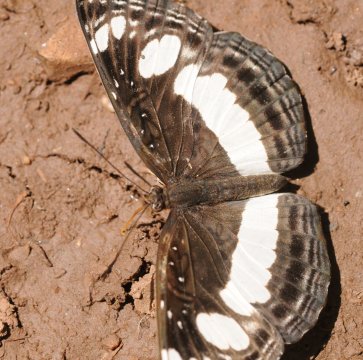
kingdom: Animalia
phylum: Arthropoda
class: Insecta
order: Lepidoptera
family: Nymphalidae
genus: Neptis
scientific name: Neptis saclava
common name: Spotted Sailer
